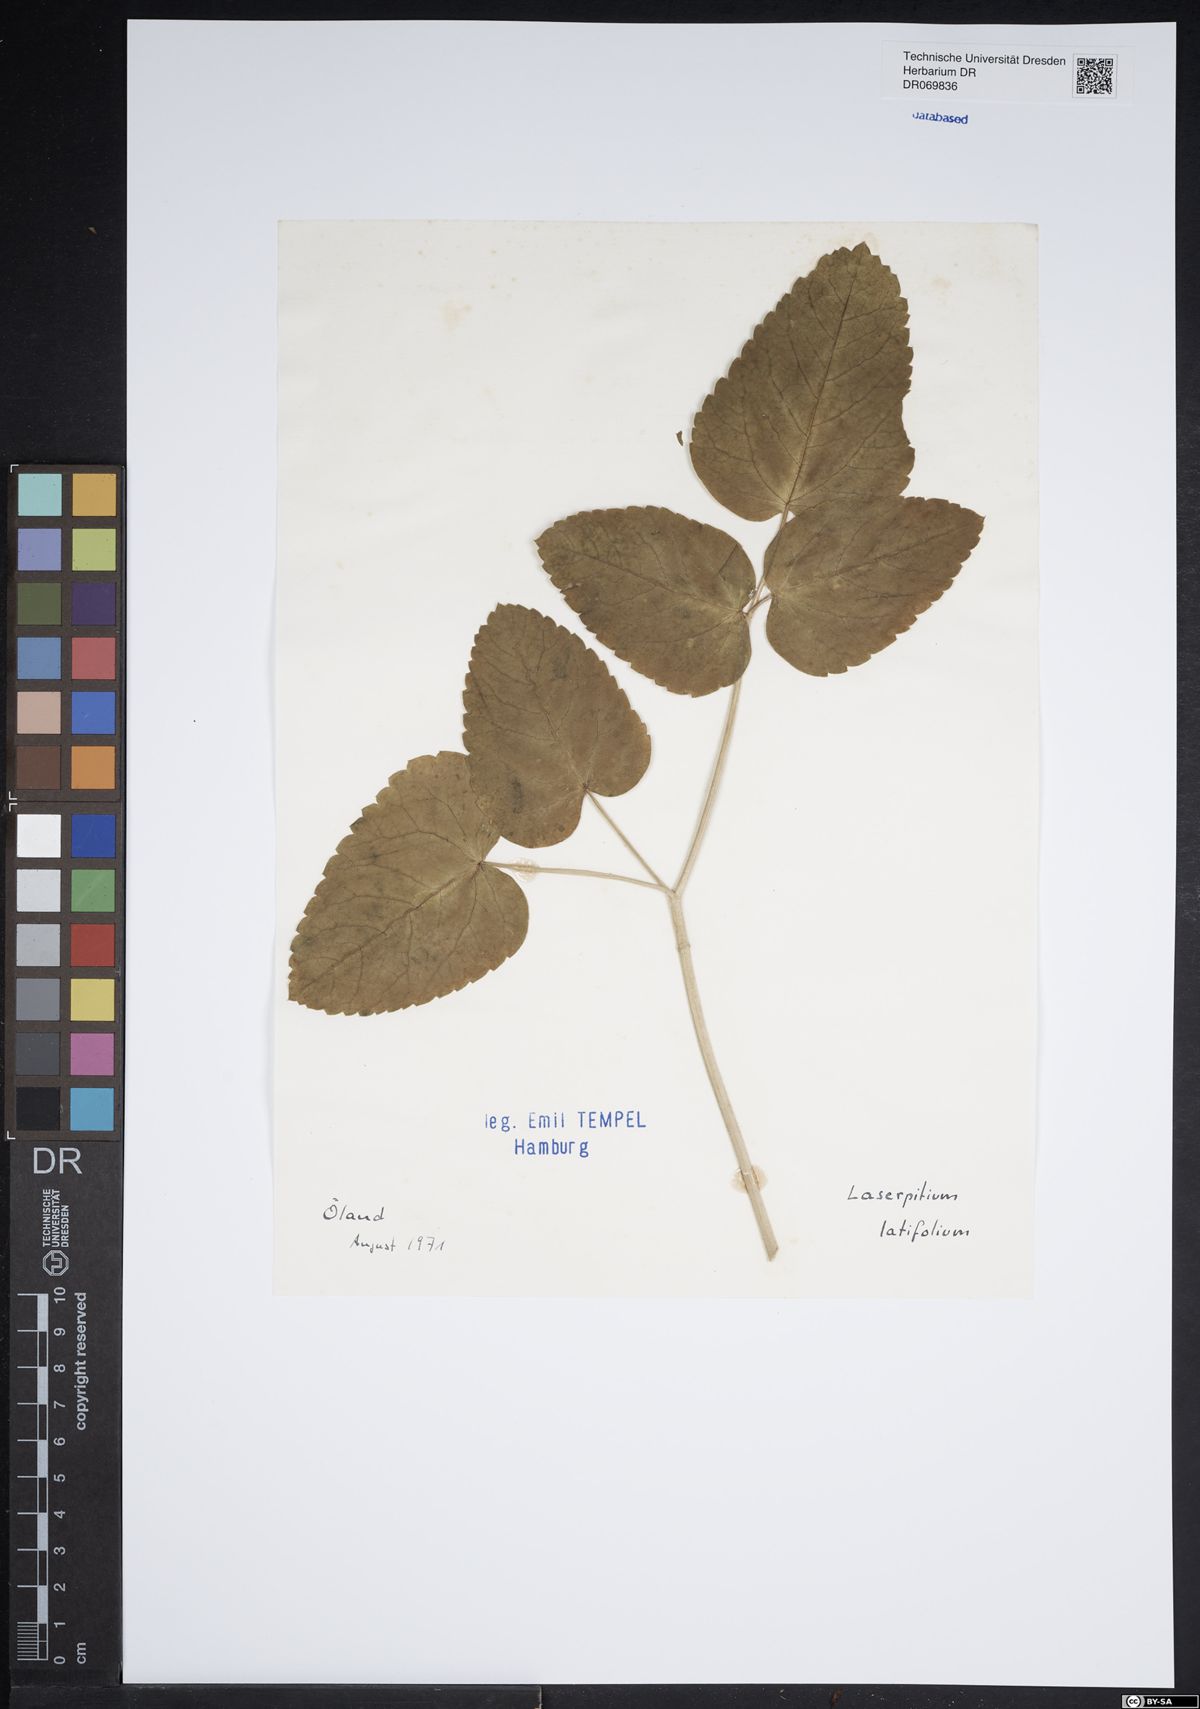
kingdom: Plantae
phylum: Tracheophyta
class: Magnoliopsida
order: Apiales
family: Apiaceae
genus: Laserpitium
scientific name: Laserpitium latifolium
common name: Broadleaf sermountain
